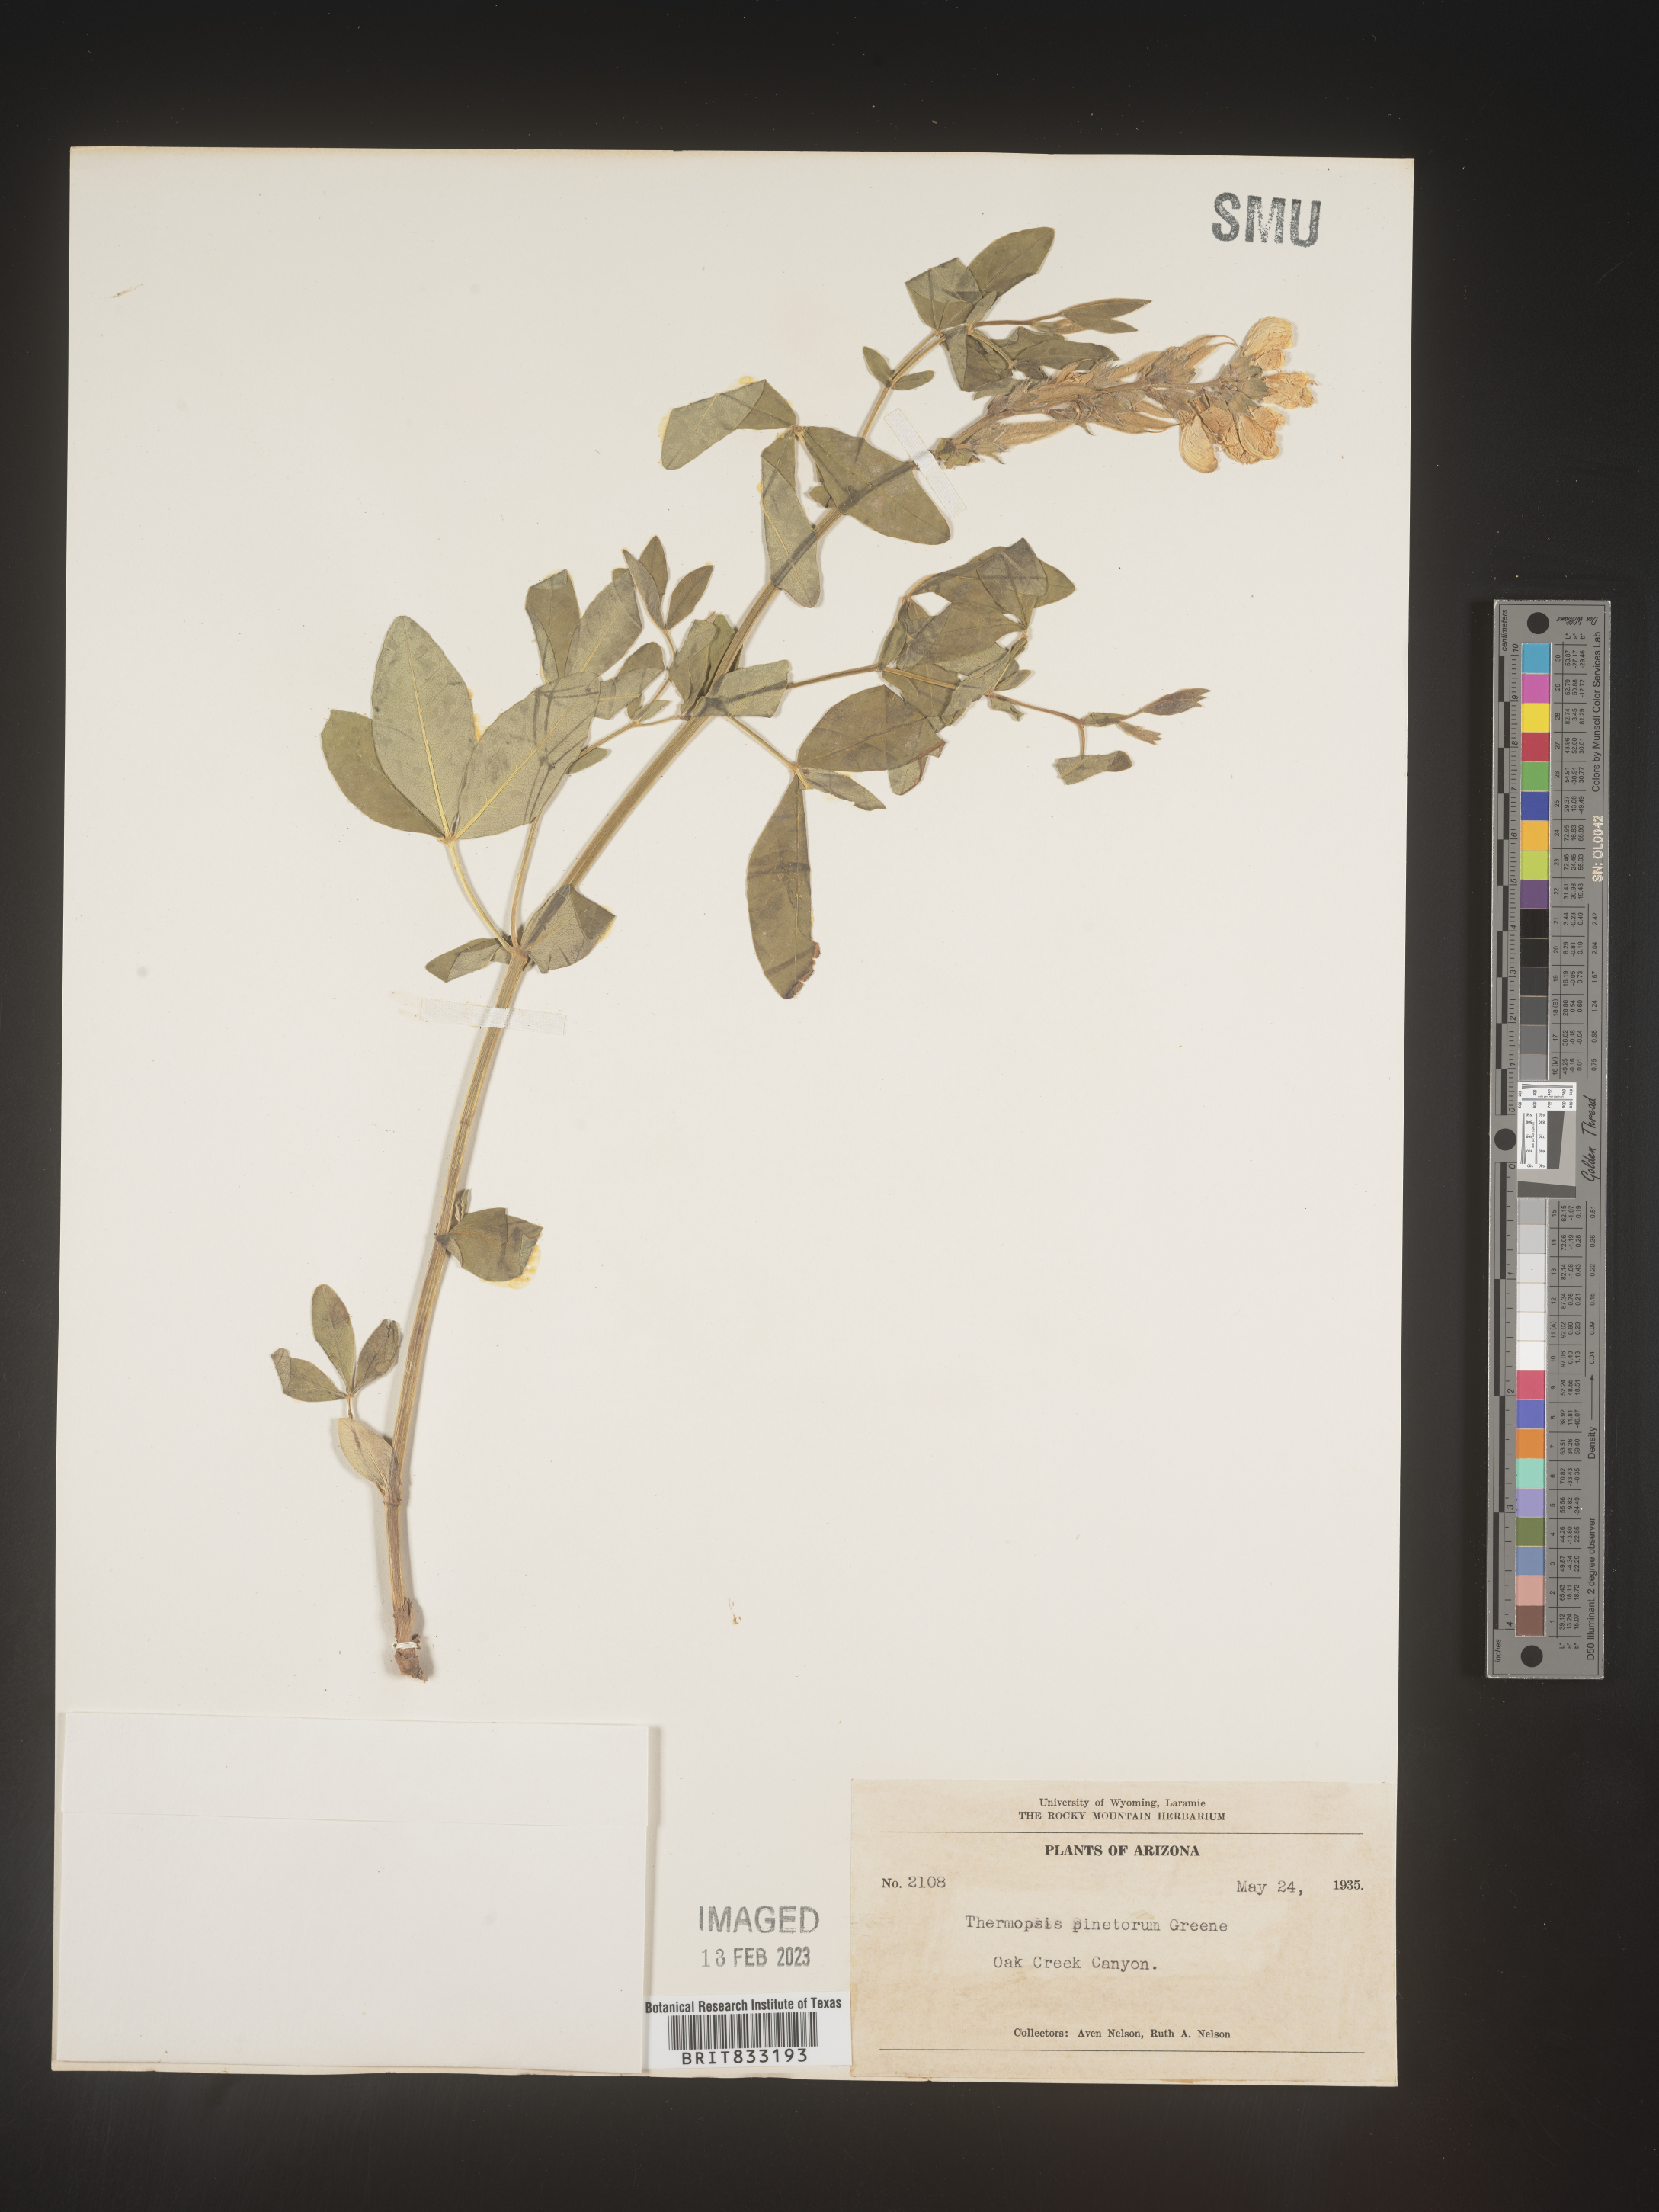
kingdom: Plantae
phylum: Tracheophyta
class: Magnoliopsida
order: Fabales
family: Fabaceae
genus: Thermopsis
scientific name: Thermopsis rhombifolia
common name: Circle-pod-pea
